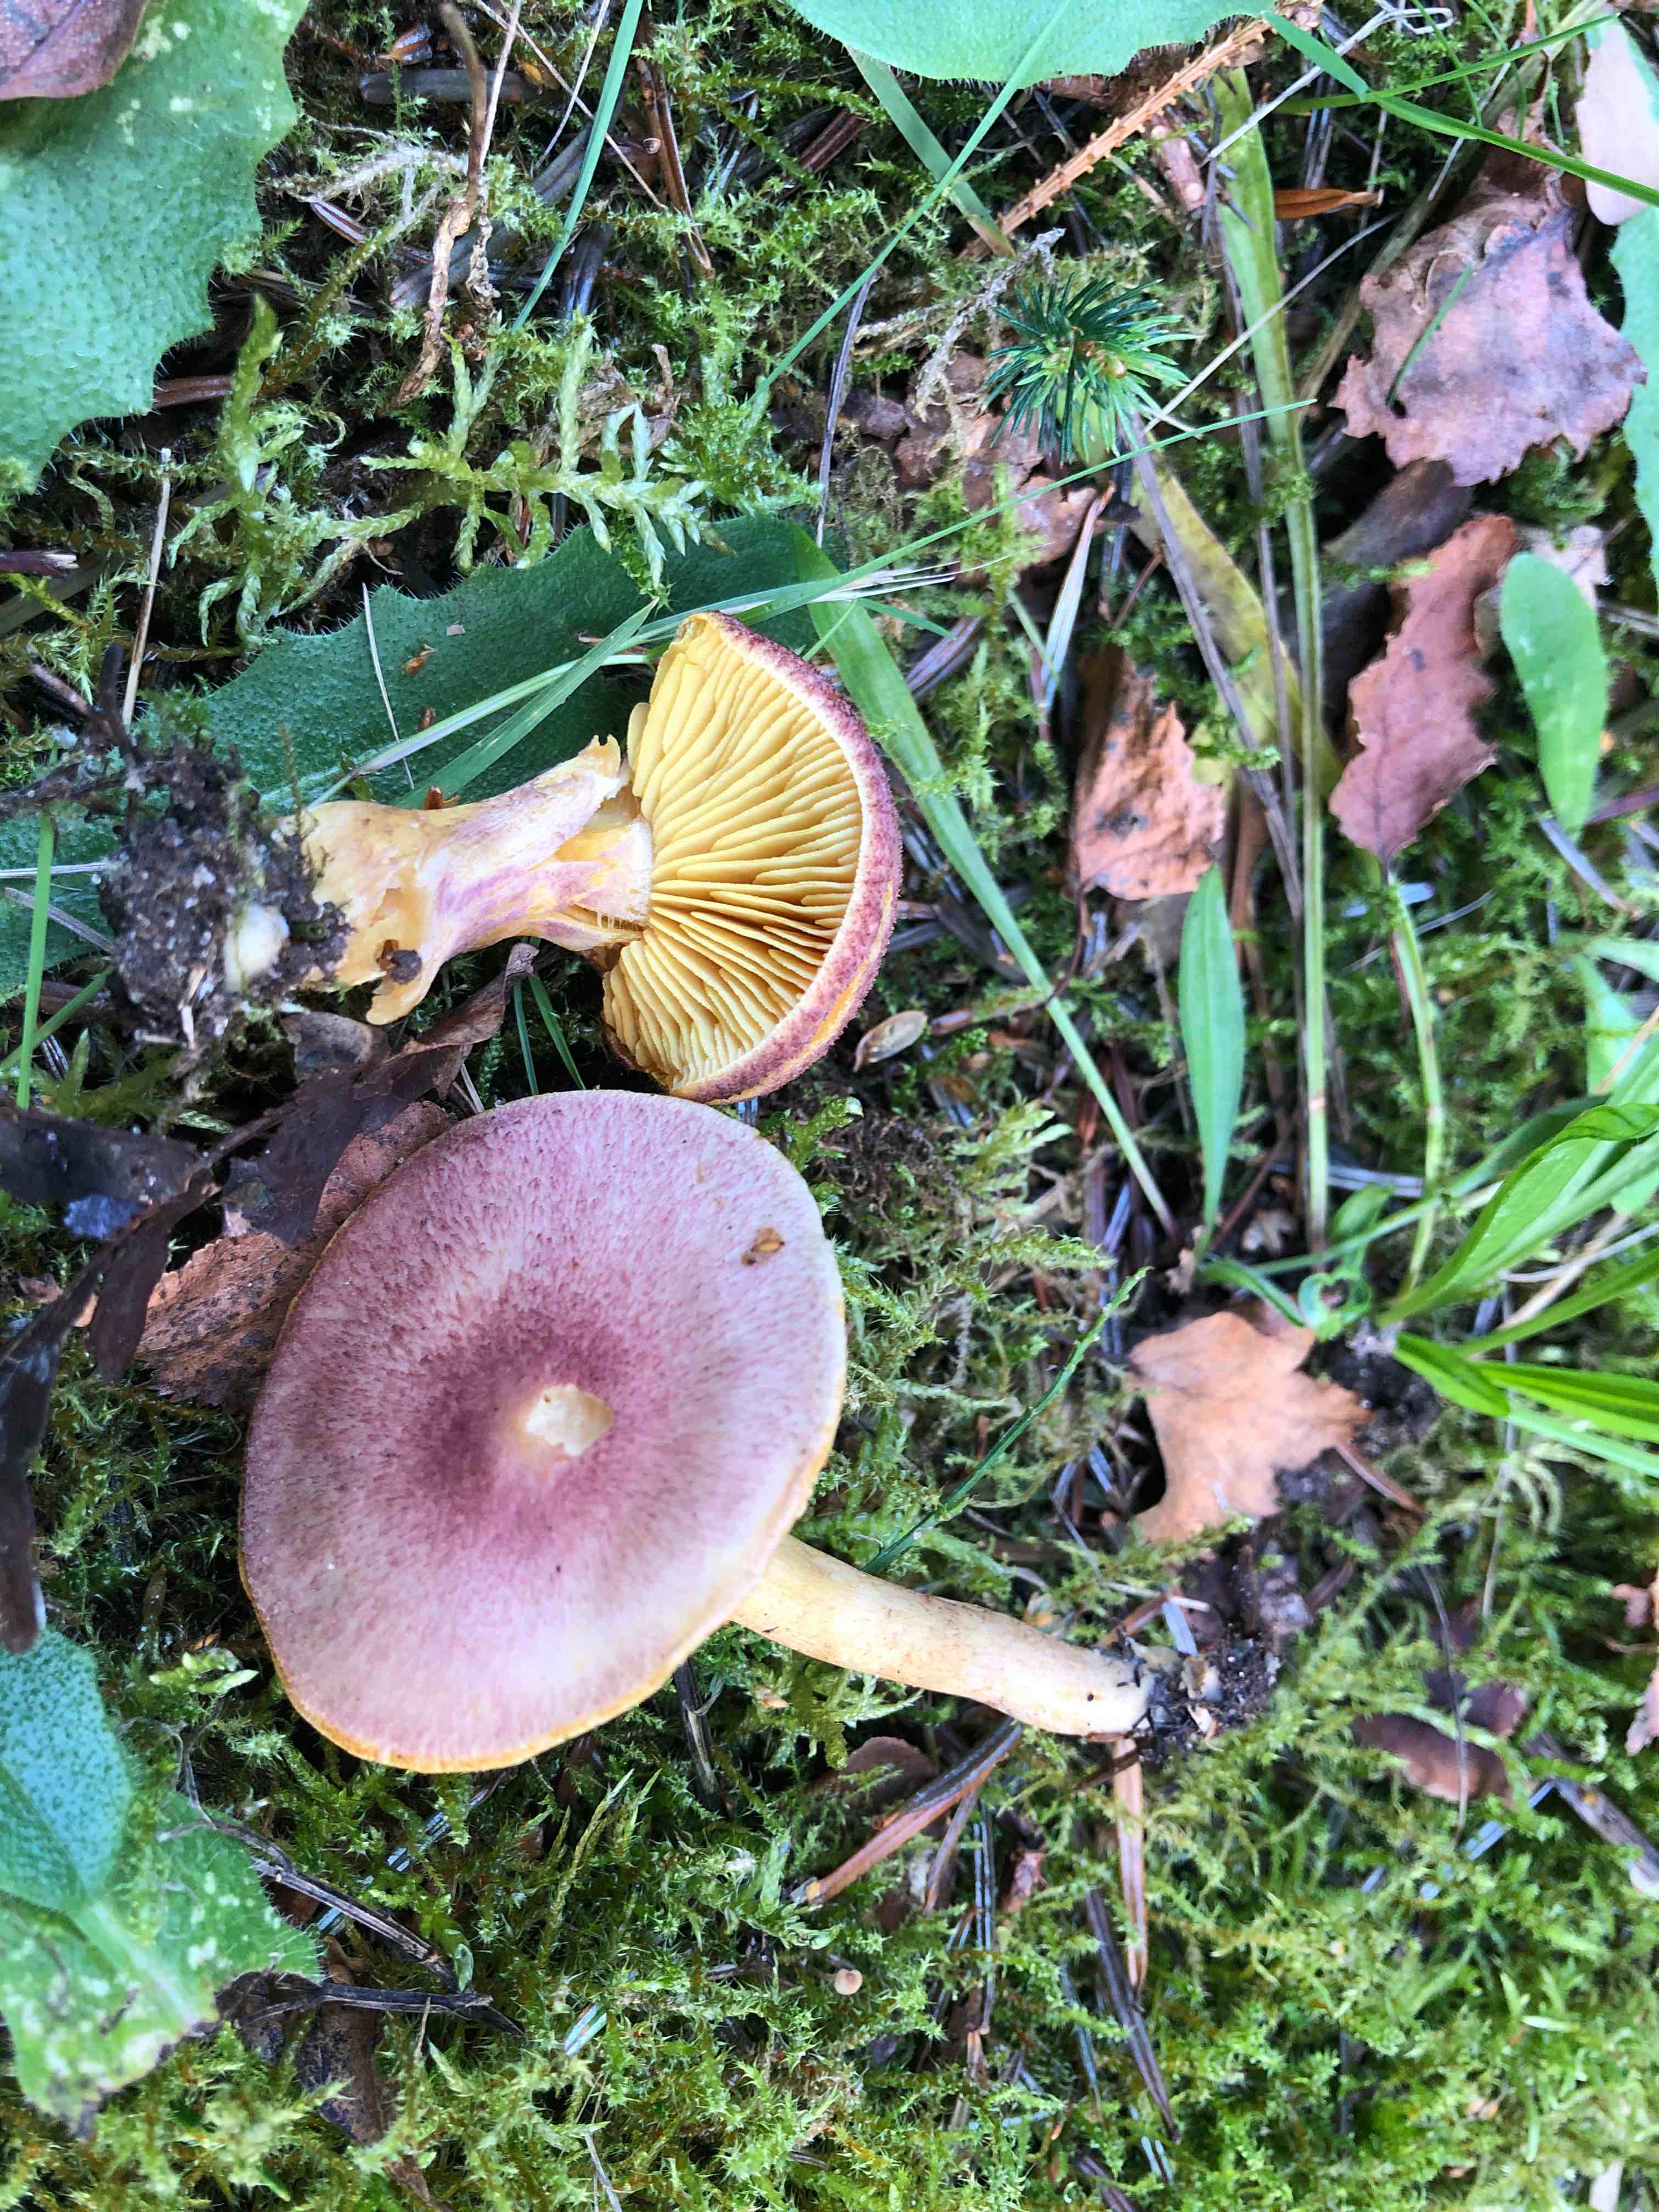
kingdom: Fungi
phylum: Basidiomycota
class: Agaricomycetes
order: Agaricales
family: Tricholomataceae
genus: Tricholomopsis
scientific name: Tricholomopsis rutilans
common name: purpur-væbnerhat
